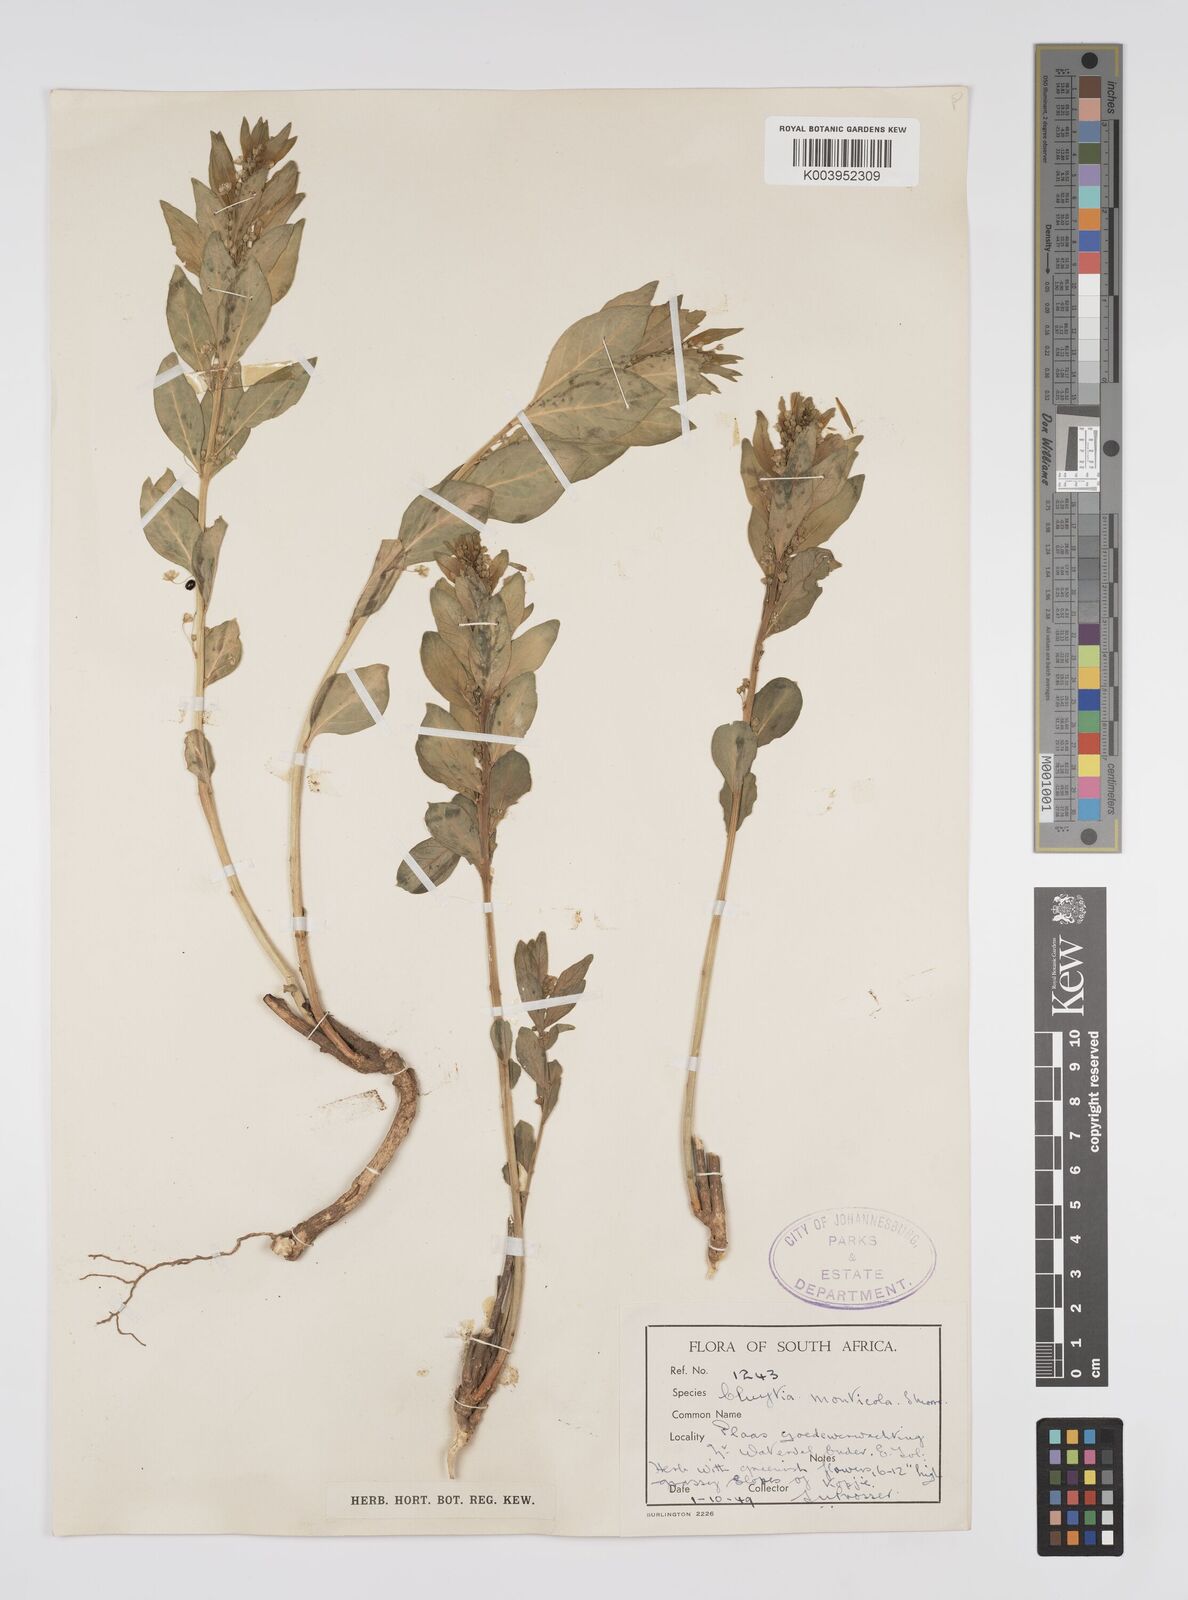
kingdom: Plantae
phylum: Tracheophyta
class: Magnoliopsida
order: Malpighiales
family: Peraceae
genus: Clutia
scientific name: Clutia
